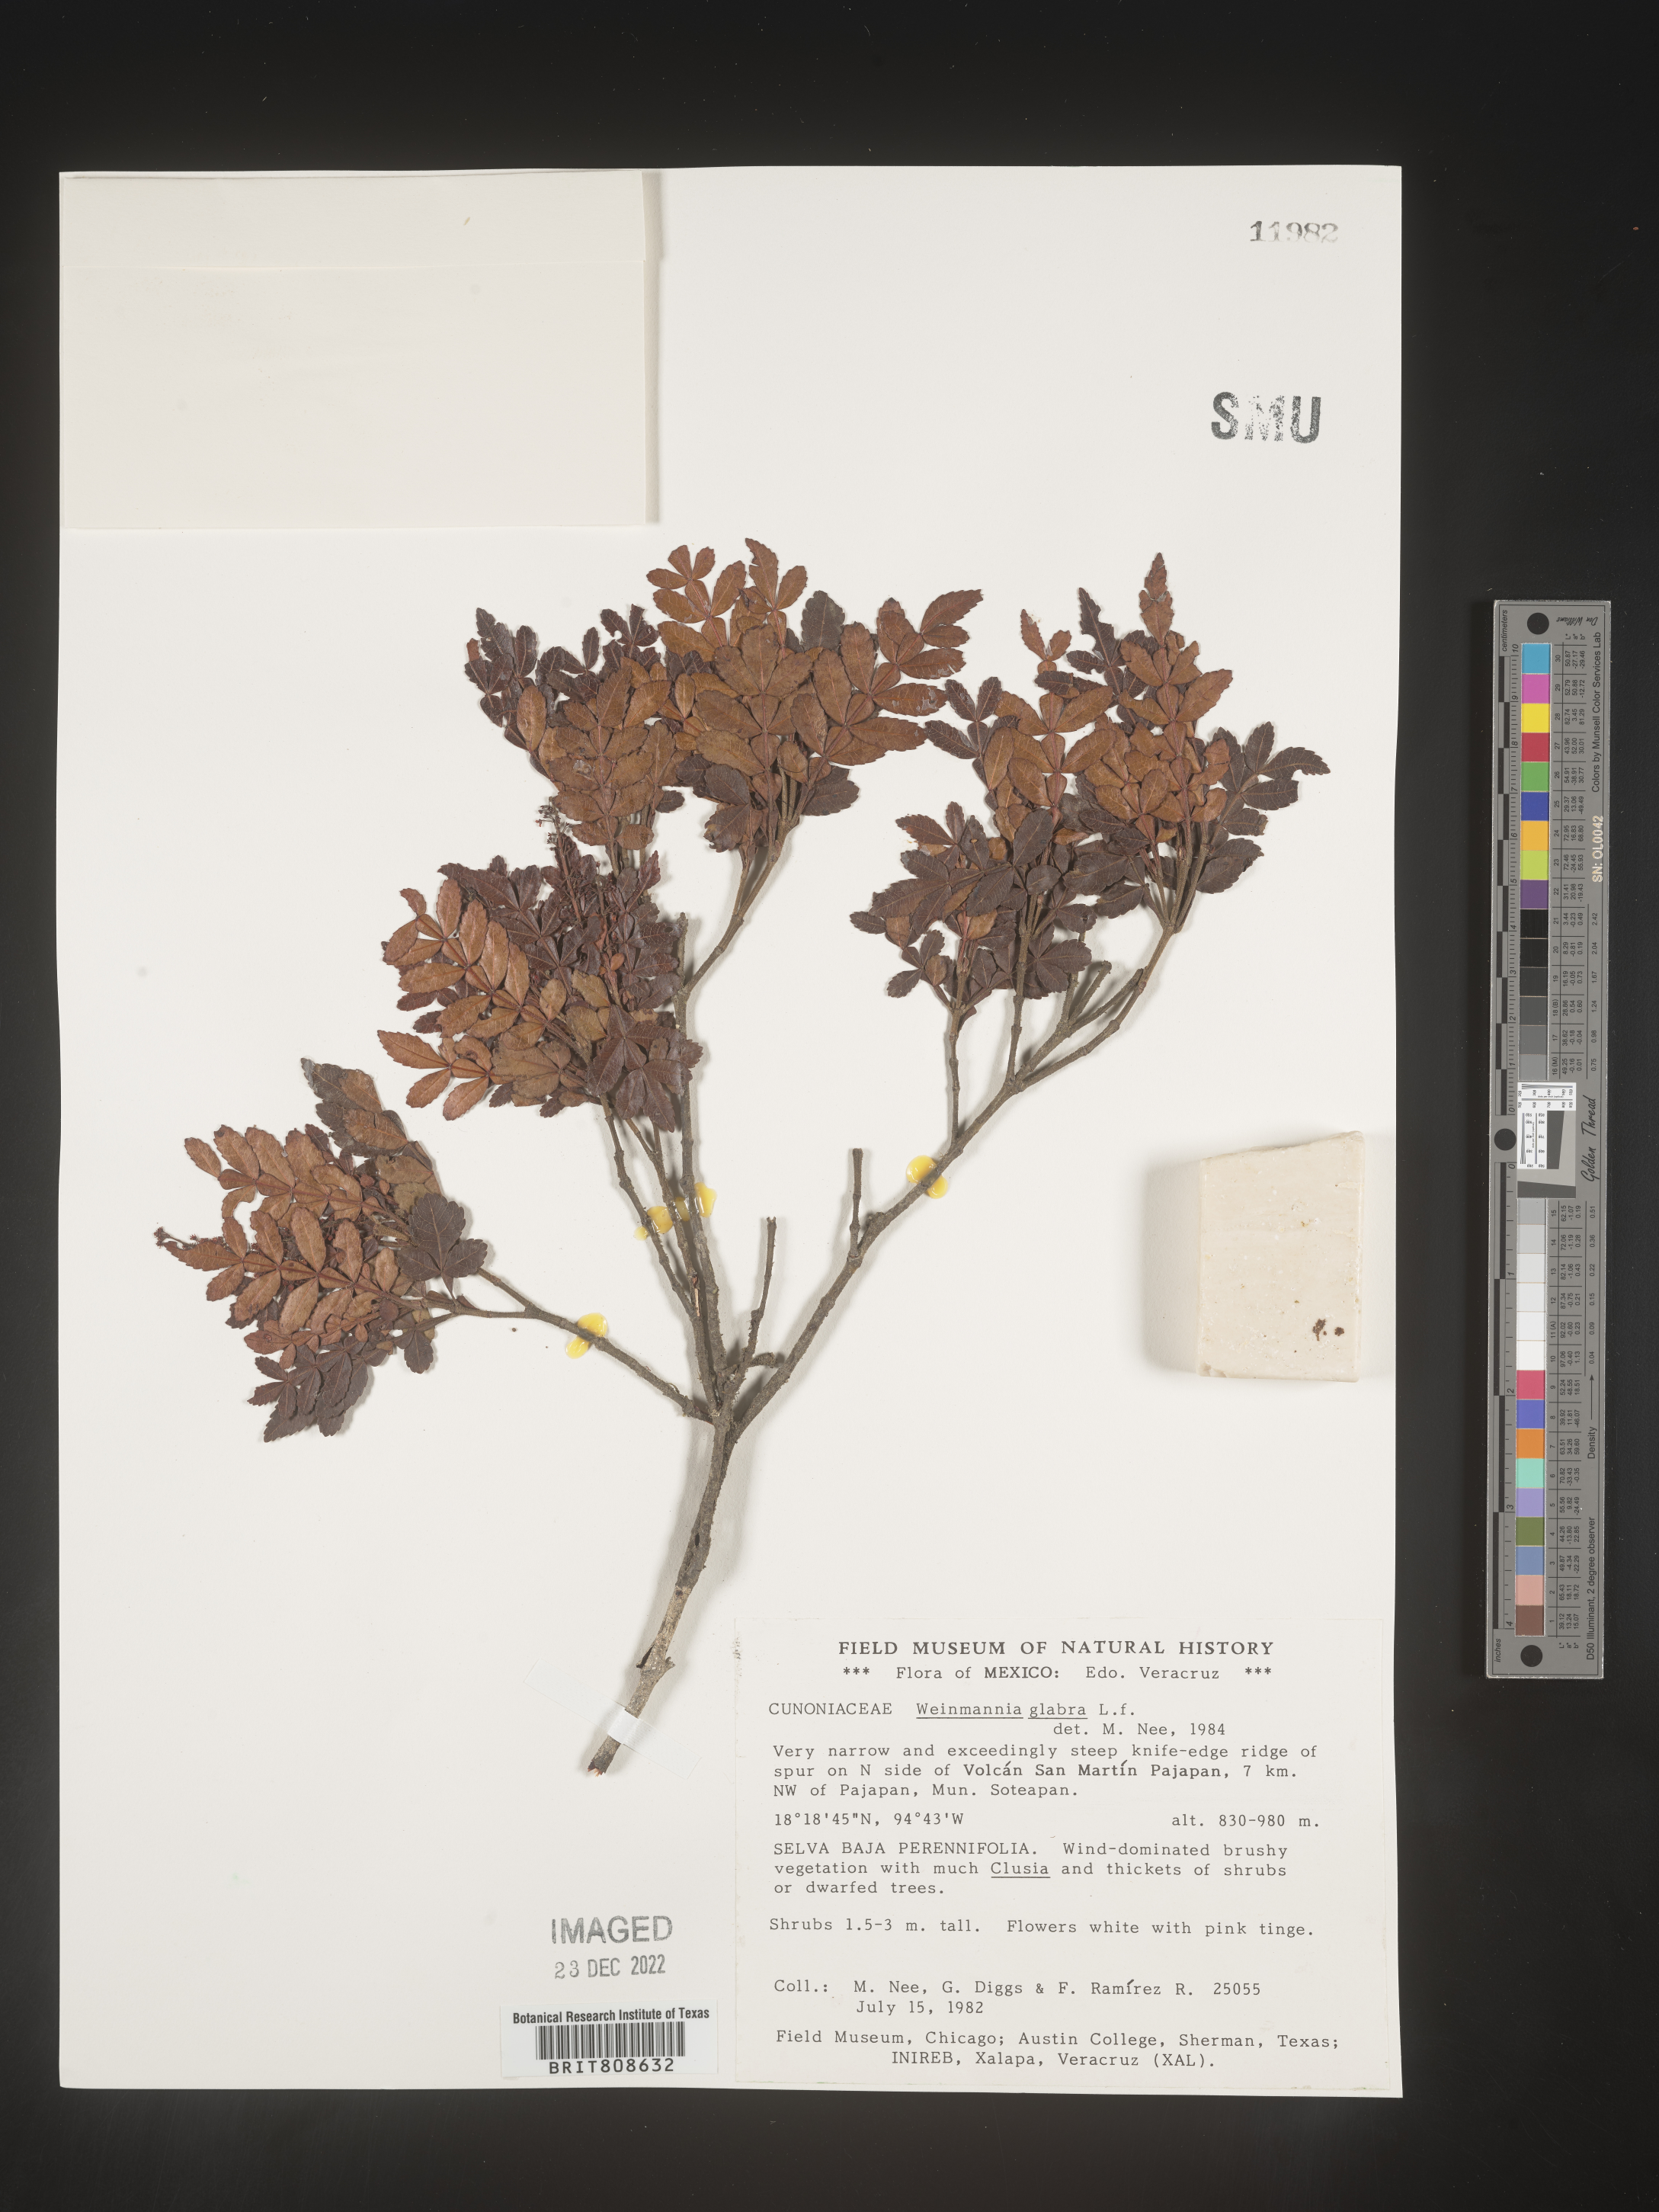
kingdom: Plantae
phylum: Tracheophyta
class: Magnoliopsida
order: Oxalidales
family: Cunoniaceae
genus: Weinmannia
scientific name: Weinmannia
